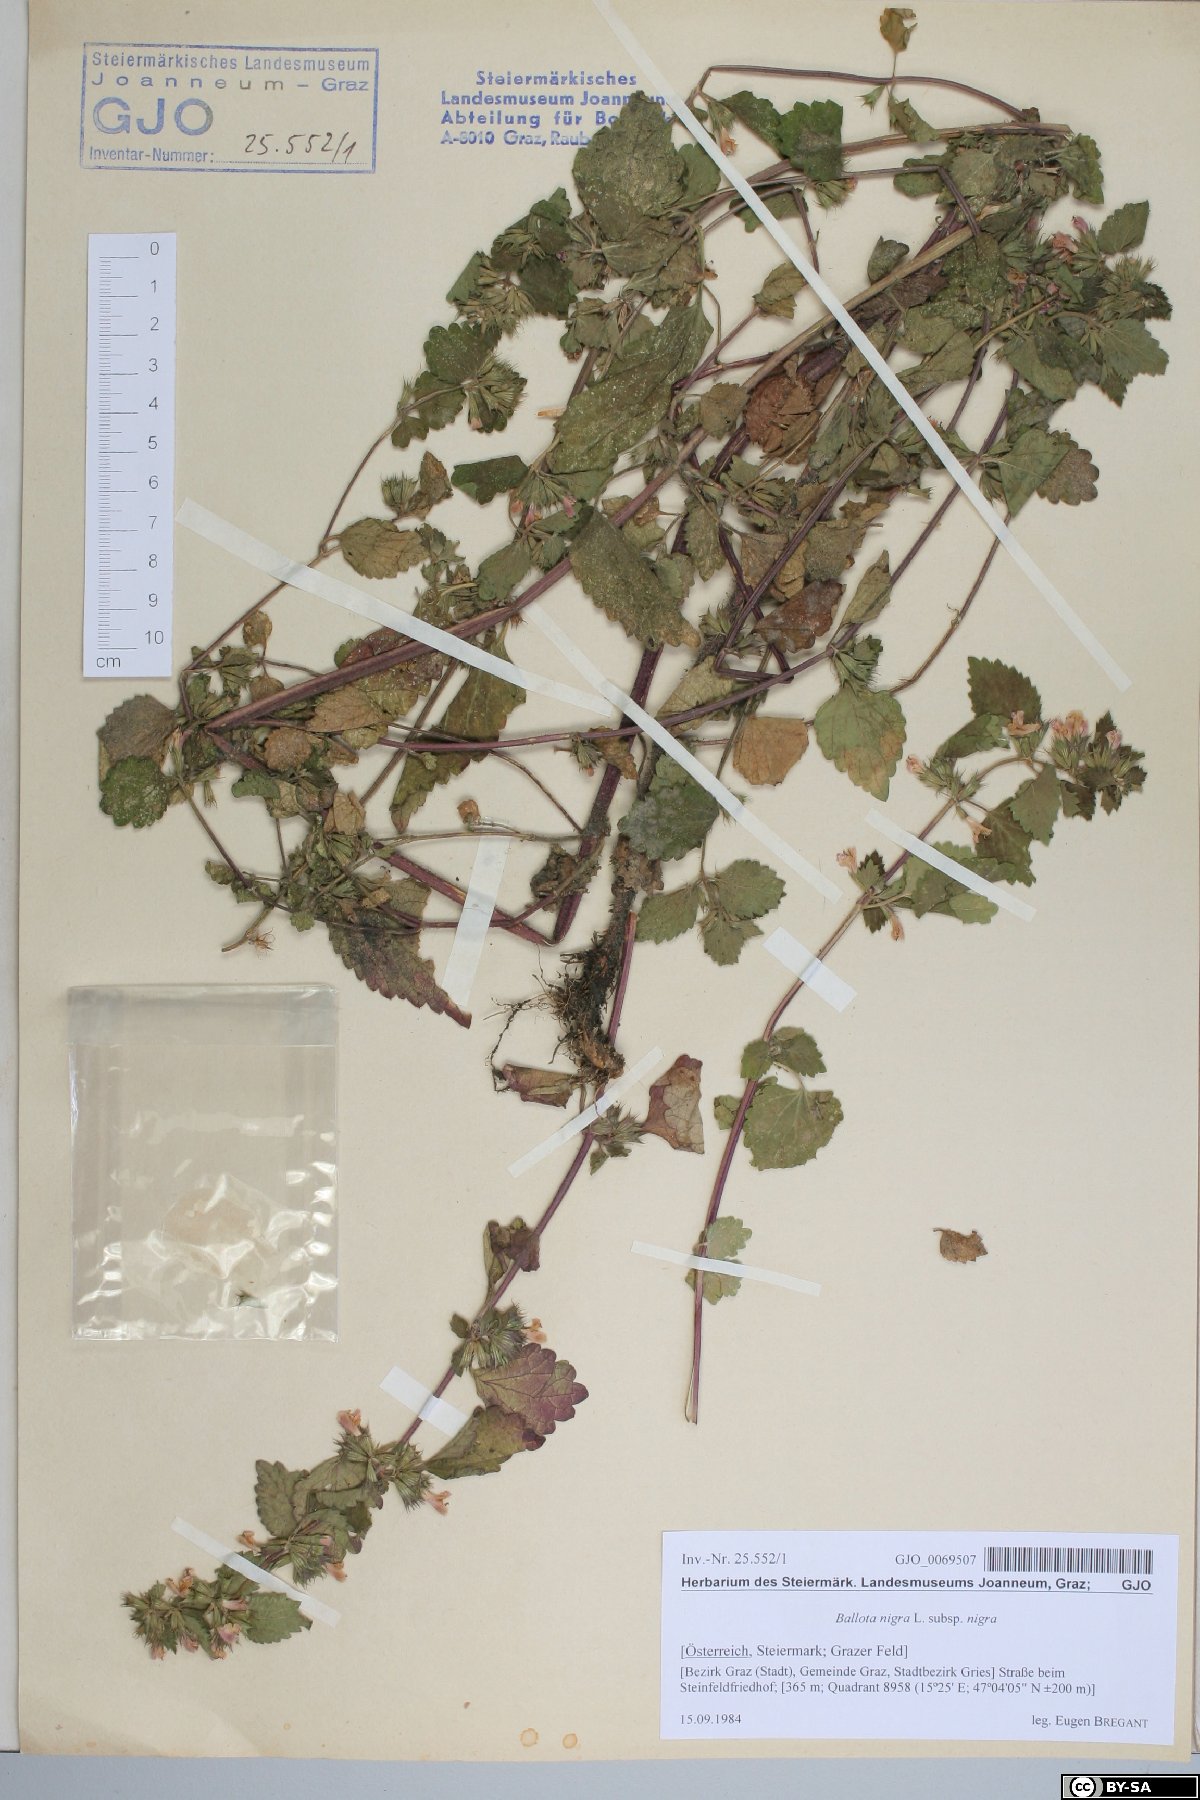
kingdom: Plantae
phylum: Tracheophyta
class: Magnoliopsida
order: Lamiales
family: Lamiaceae
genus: Ballota
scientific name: Ballota nigra
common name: Black horehound
